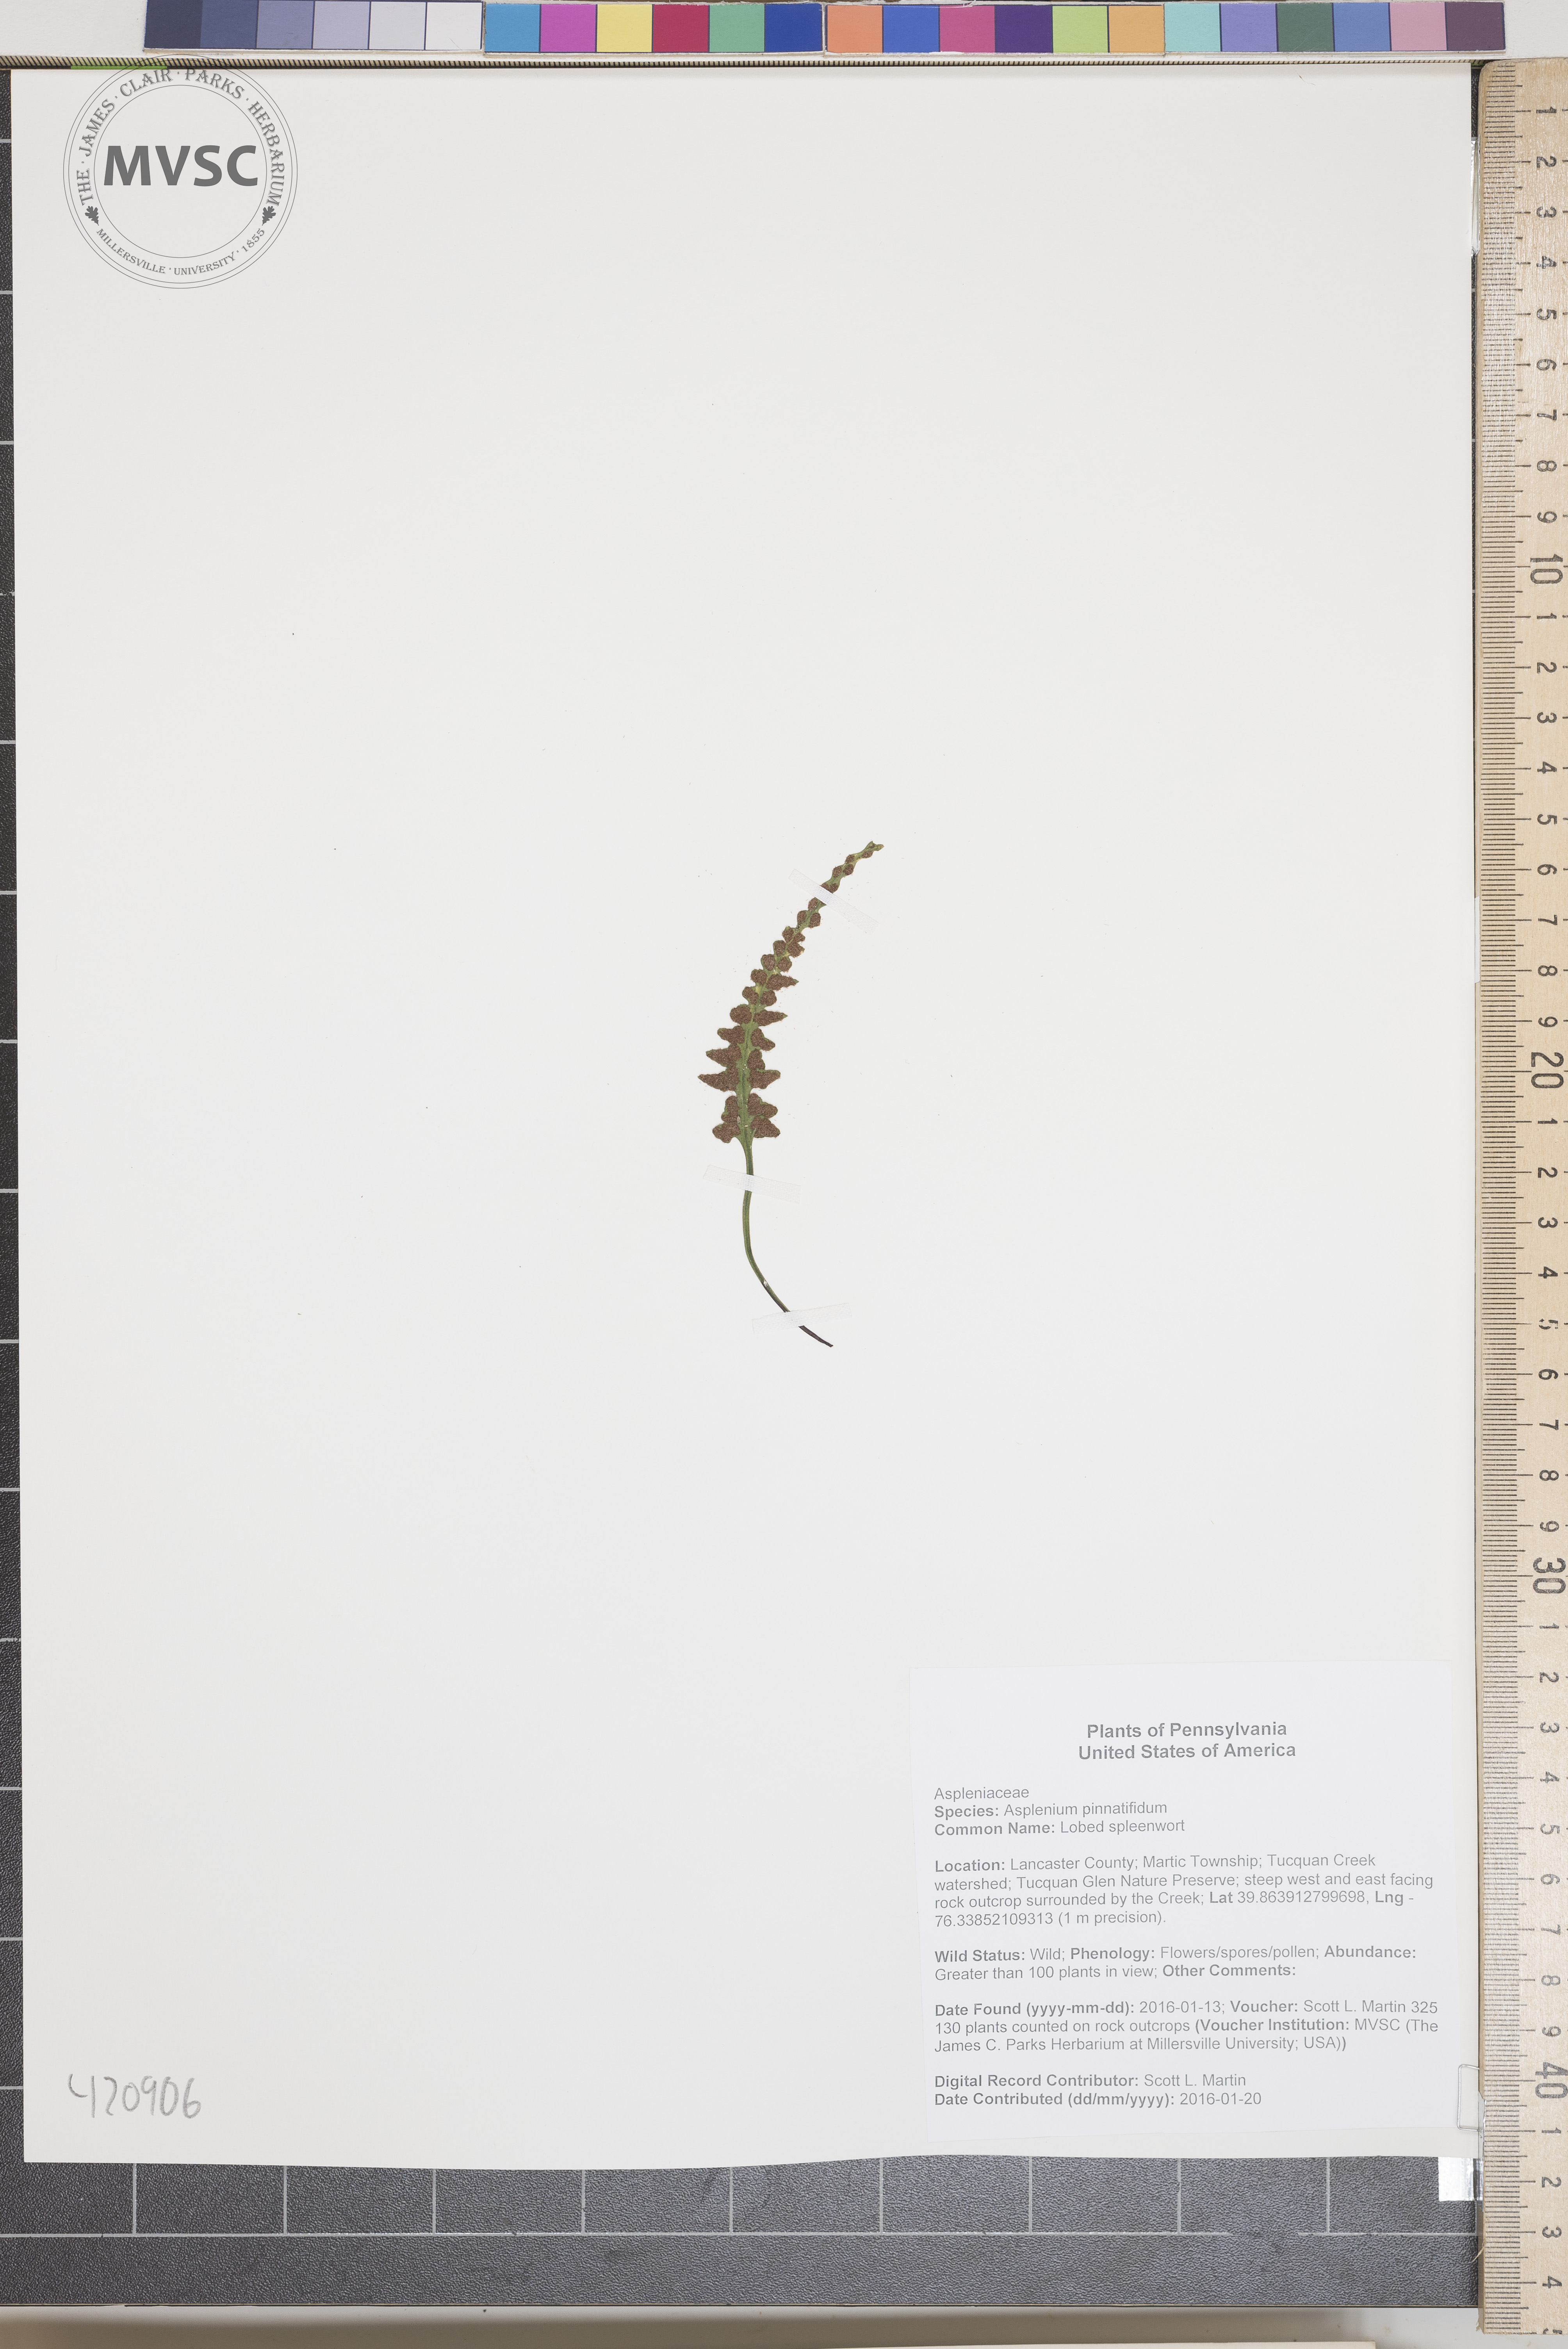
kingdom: Plantae
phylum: Tracheophyta
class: Polypodiopsida
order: Polypodiales
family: Aspleniaceae
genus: Asplenium
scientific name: Asplenium pinnatifidum
